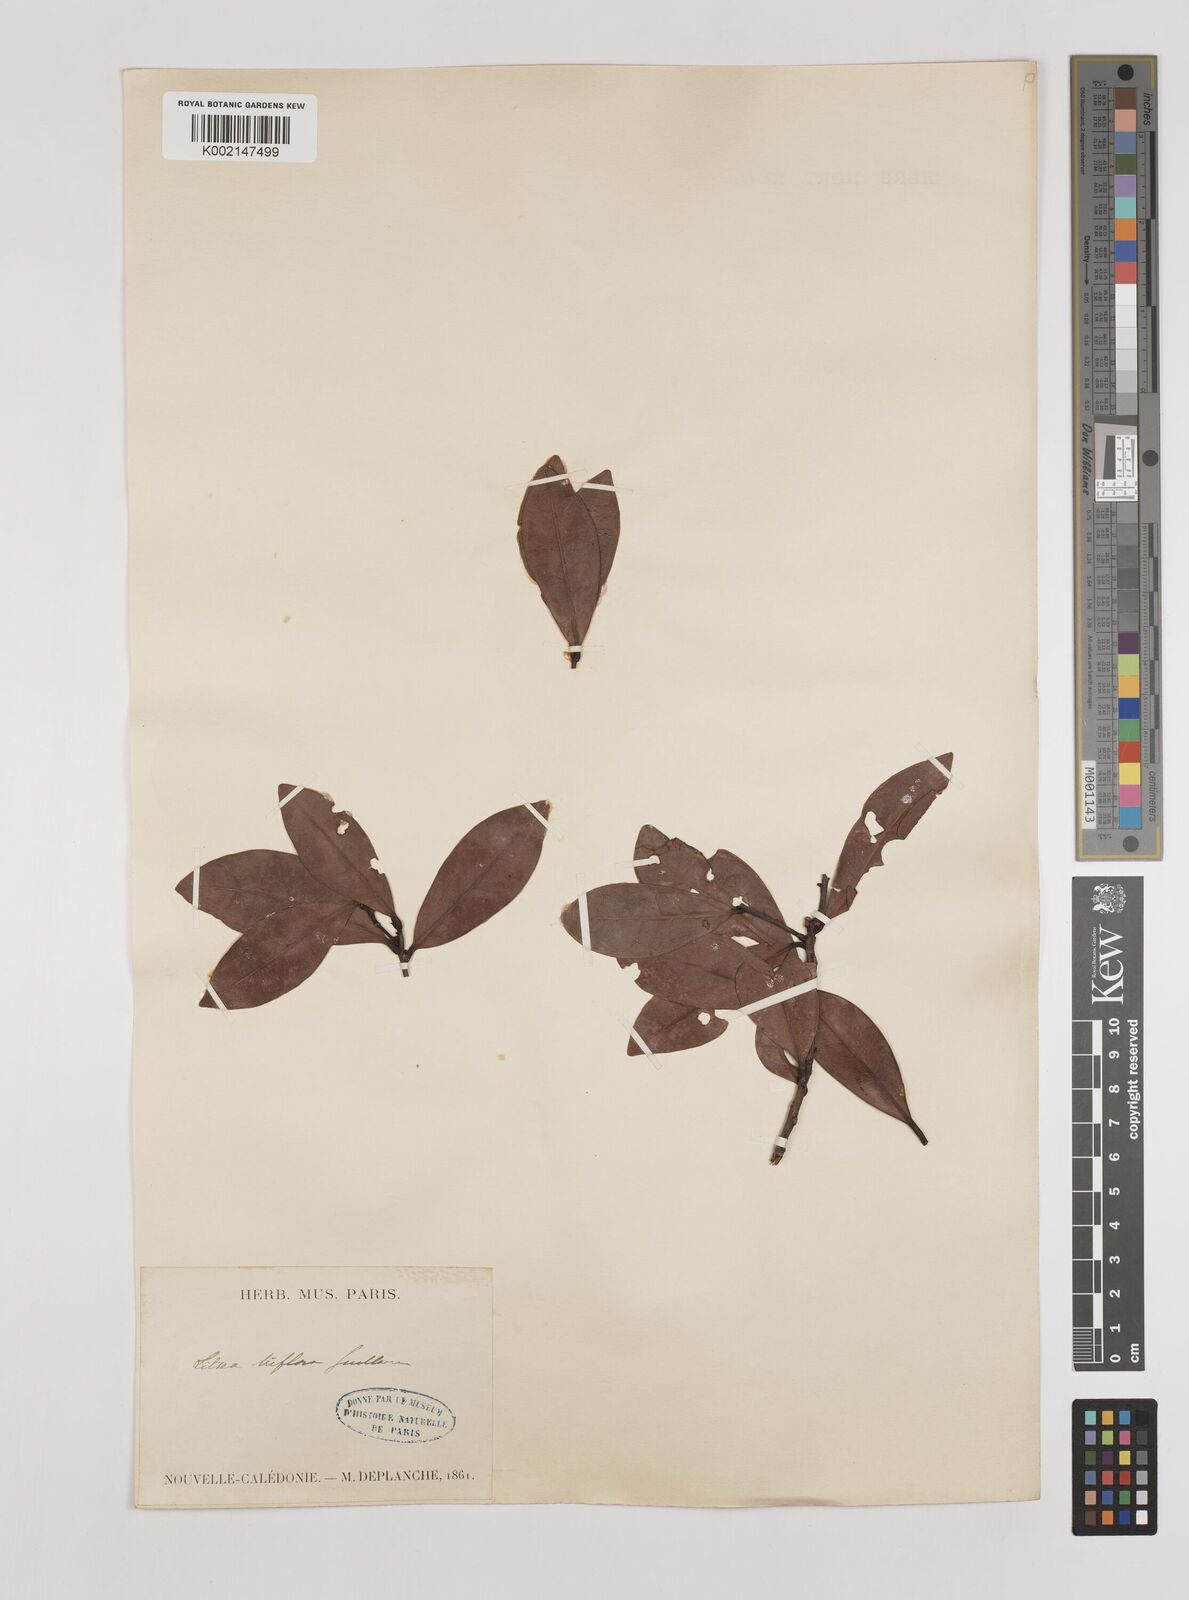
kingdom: Plantae
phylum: Tracheophyta
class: Magnoliopsida
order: Laurales
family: Lauraceae
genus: Litsea
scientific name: Litsea triflora
